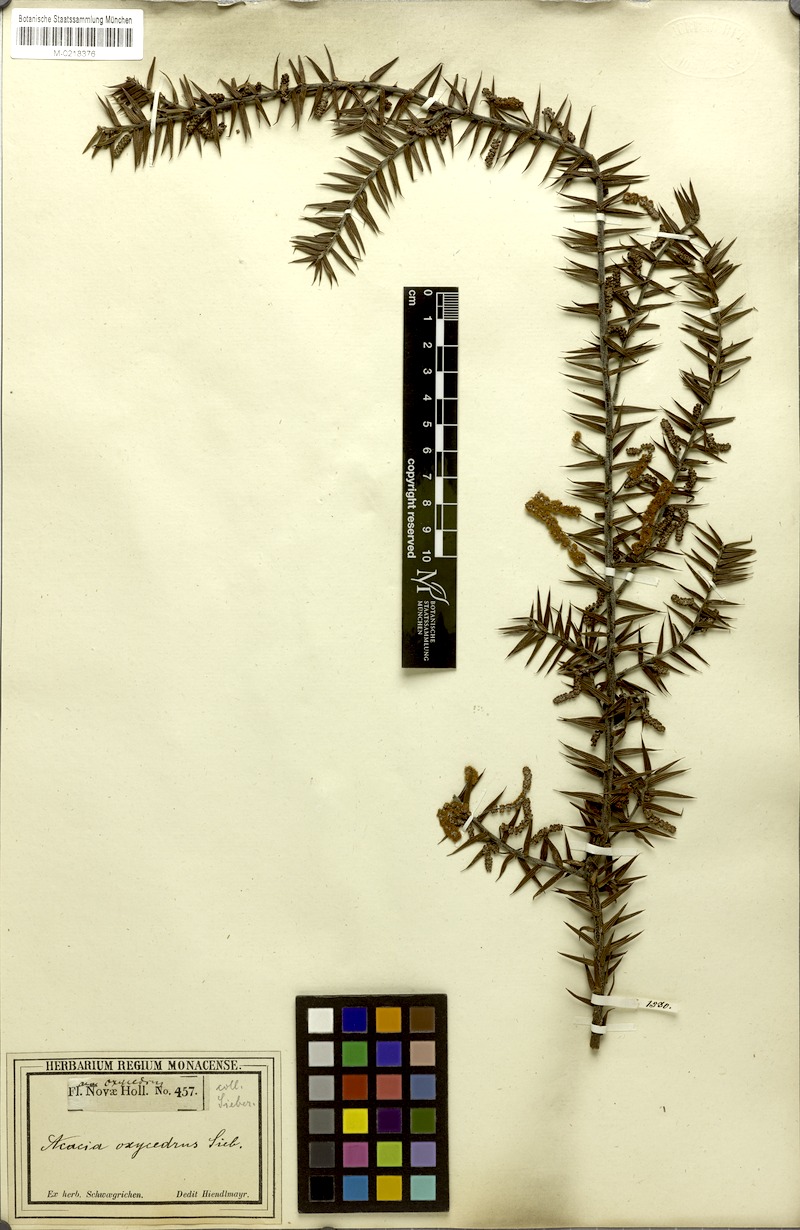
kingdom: Plantae
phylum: Tracheophyta
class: Magnoliopsida
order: Fabales
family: Fabaceae
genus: Acacia
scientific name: Acacia oxycedrus
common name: Spike wattle
